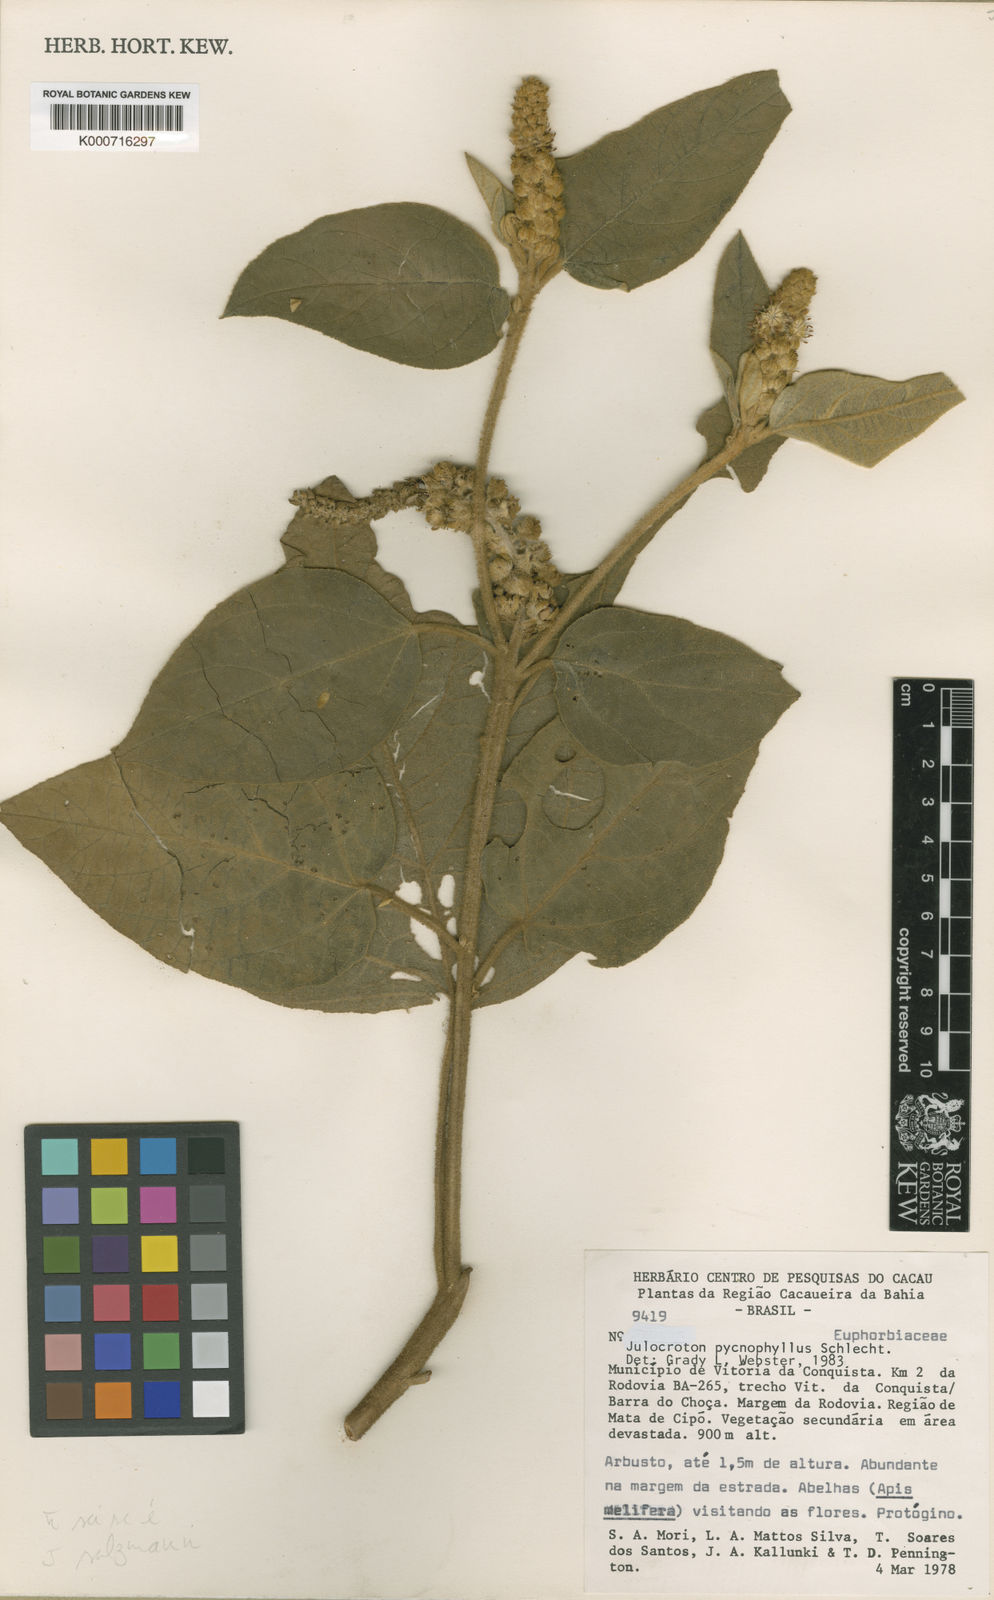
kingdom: Plantae
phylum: Tracheophyta
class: Magnoliopsida
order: Malpighiales
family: Euphorbiaceae
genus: Croton
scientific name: Croton
